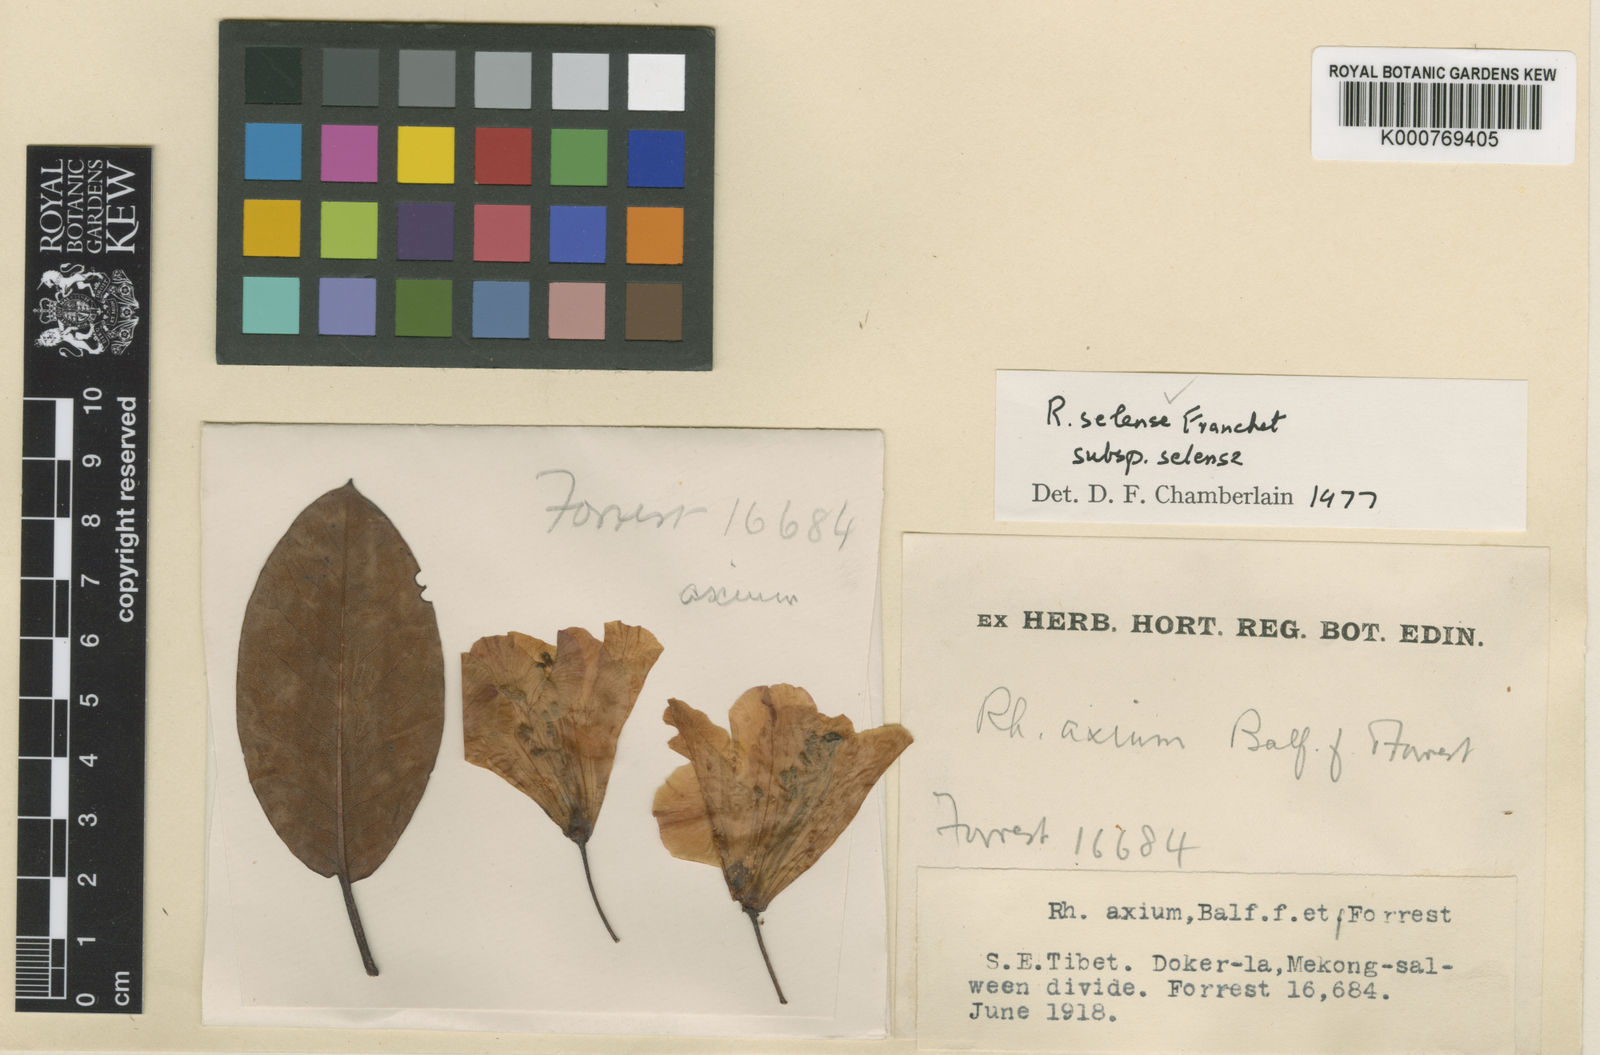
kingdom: Plantae
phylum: Tracheophyta
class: Magnoliopsida
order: Ericales
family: Ericaceae
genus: Rhododendron
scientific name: Rhododendron selense
